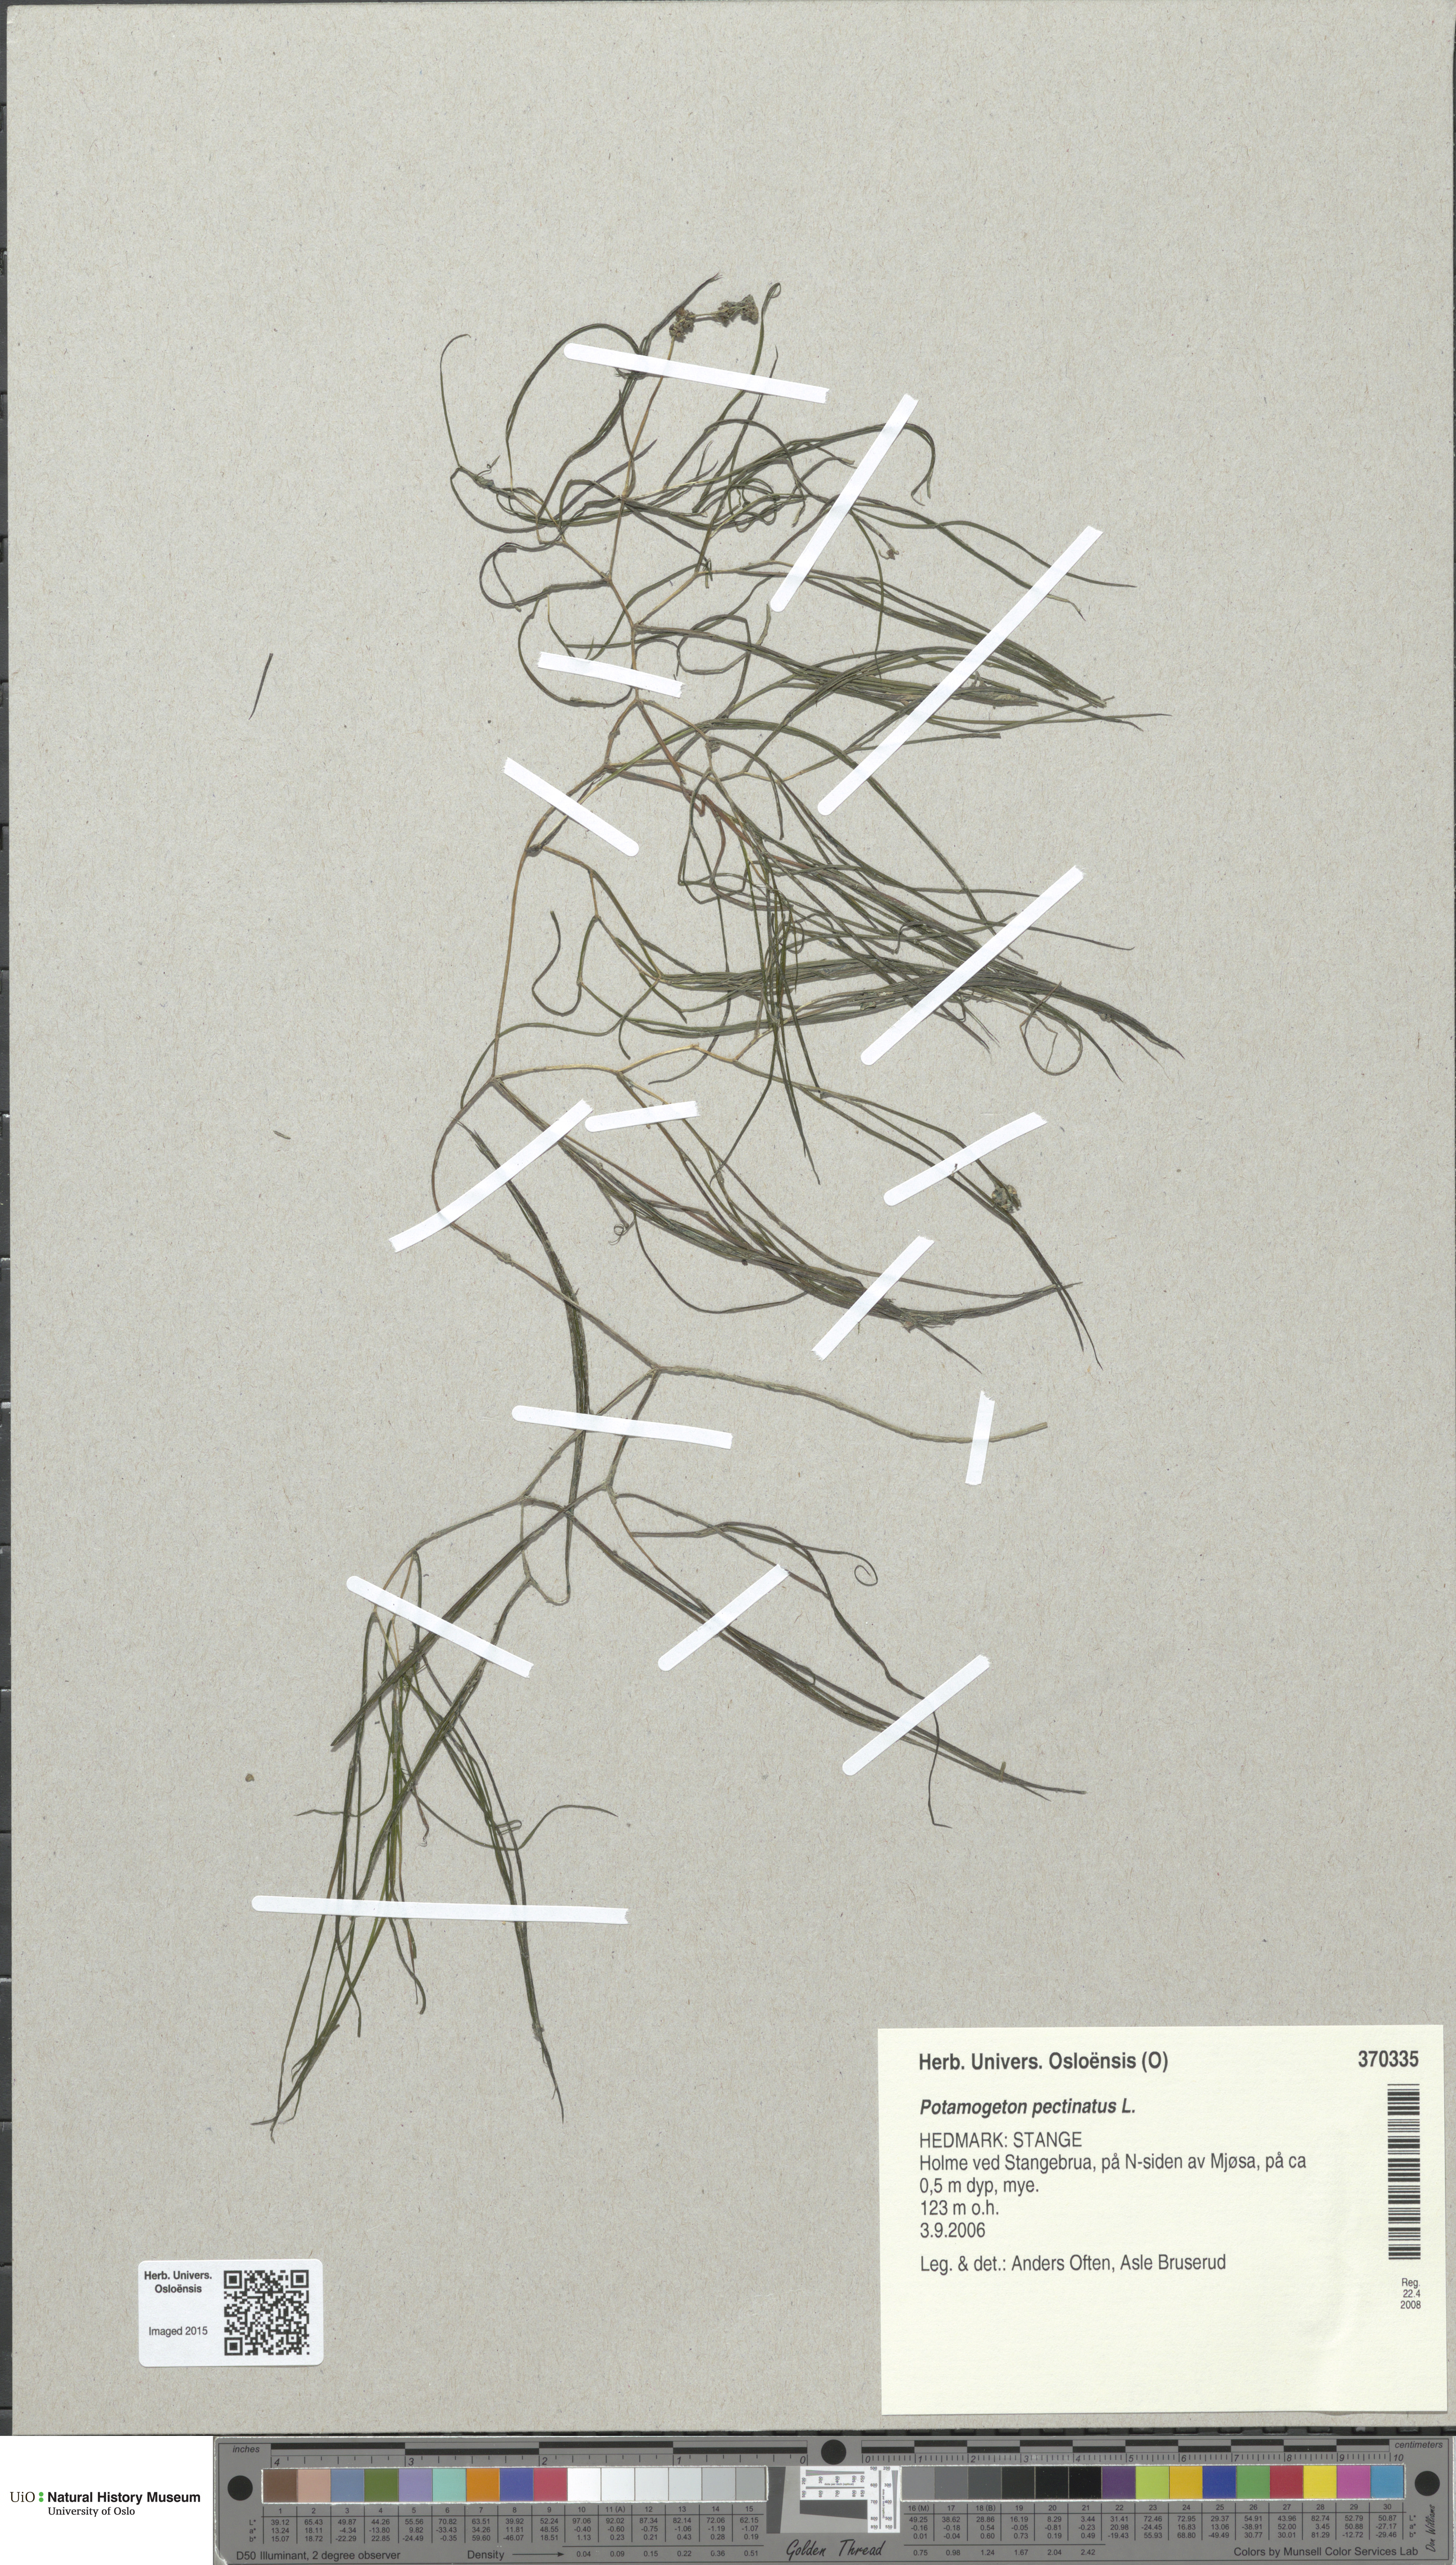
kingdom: Plantae
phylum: Tracheophyta
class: Liliopsida
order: Alismatales
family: Potamogetonaceae
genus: Stuckenia
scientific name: Stuckenia pectinata
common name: Sago pondweed
